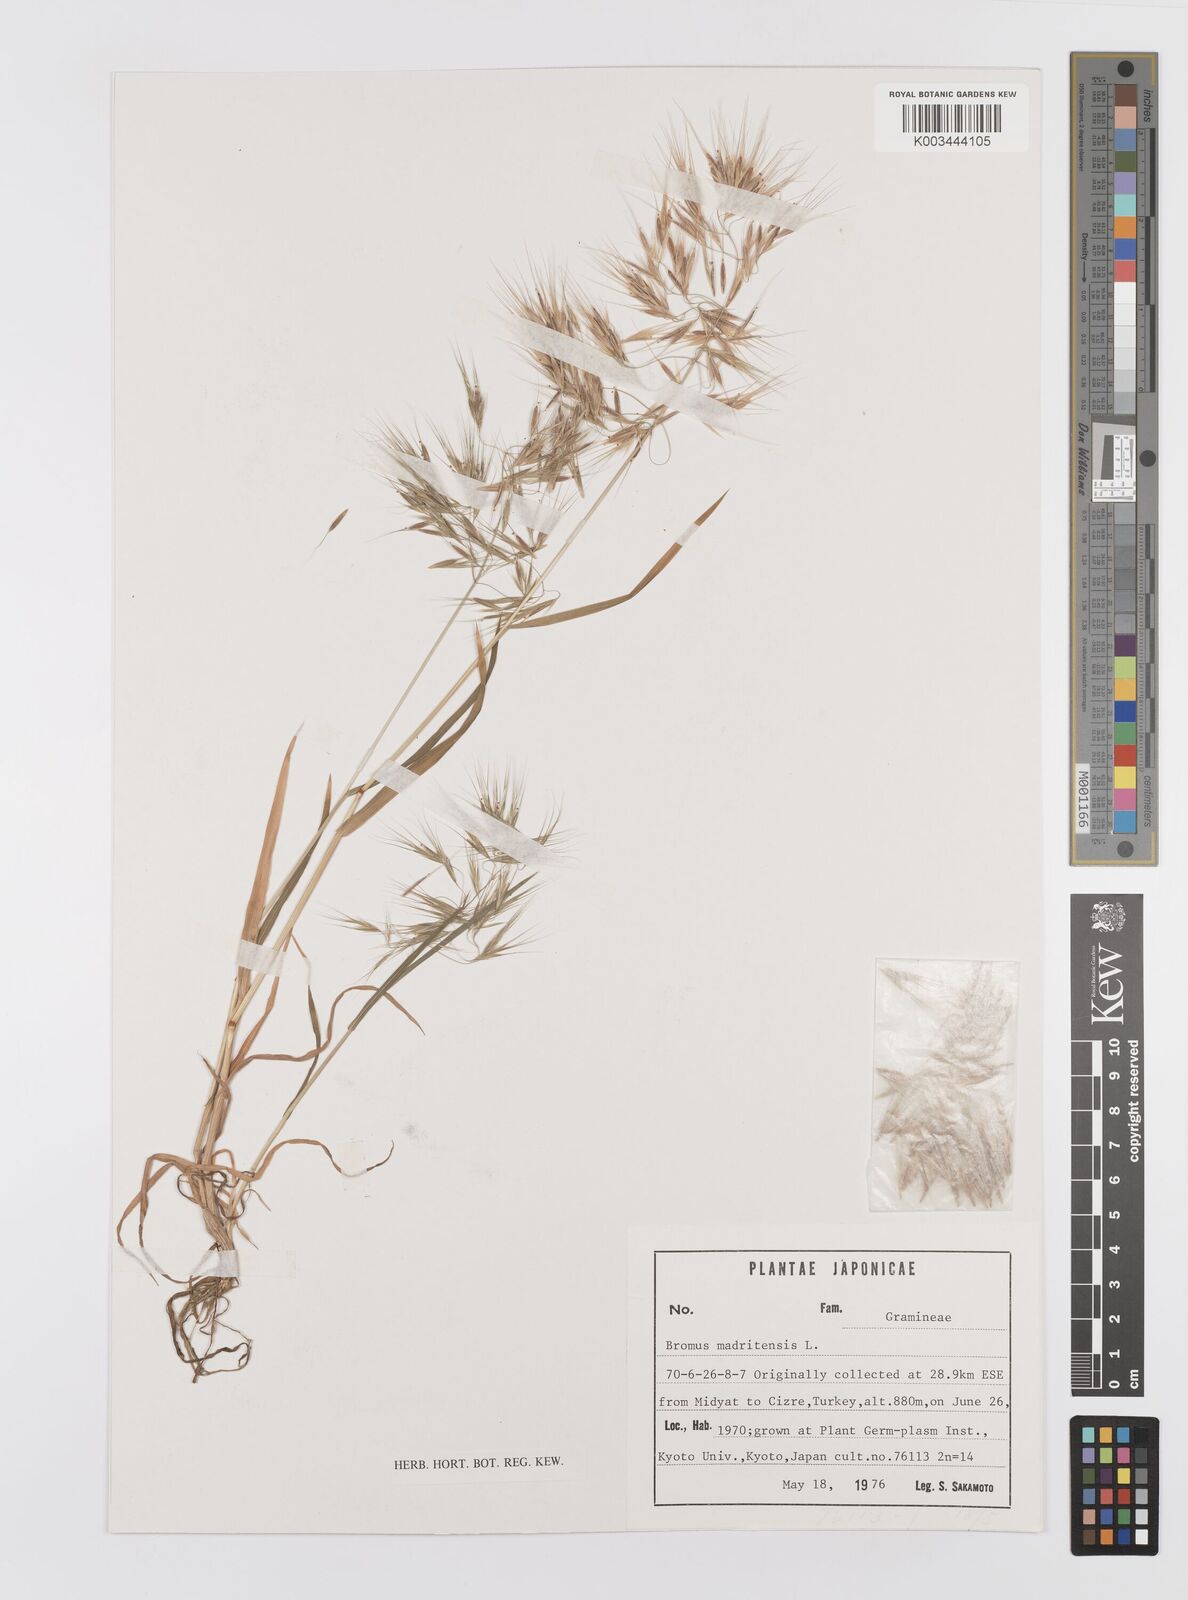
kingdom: Plantae
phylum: Tracheophyta
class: Liliopsida
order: Poales
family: Poaceae
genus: Bromus
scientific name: Bromus madritensis
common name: Compact brome
